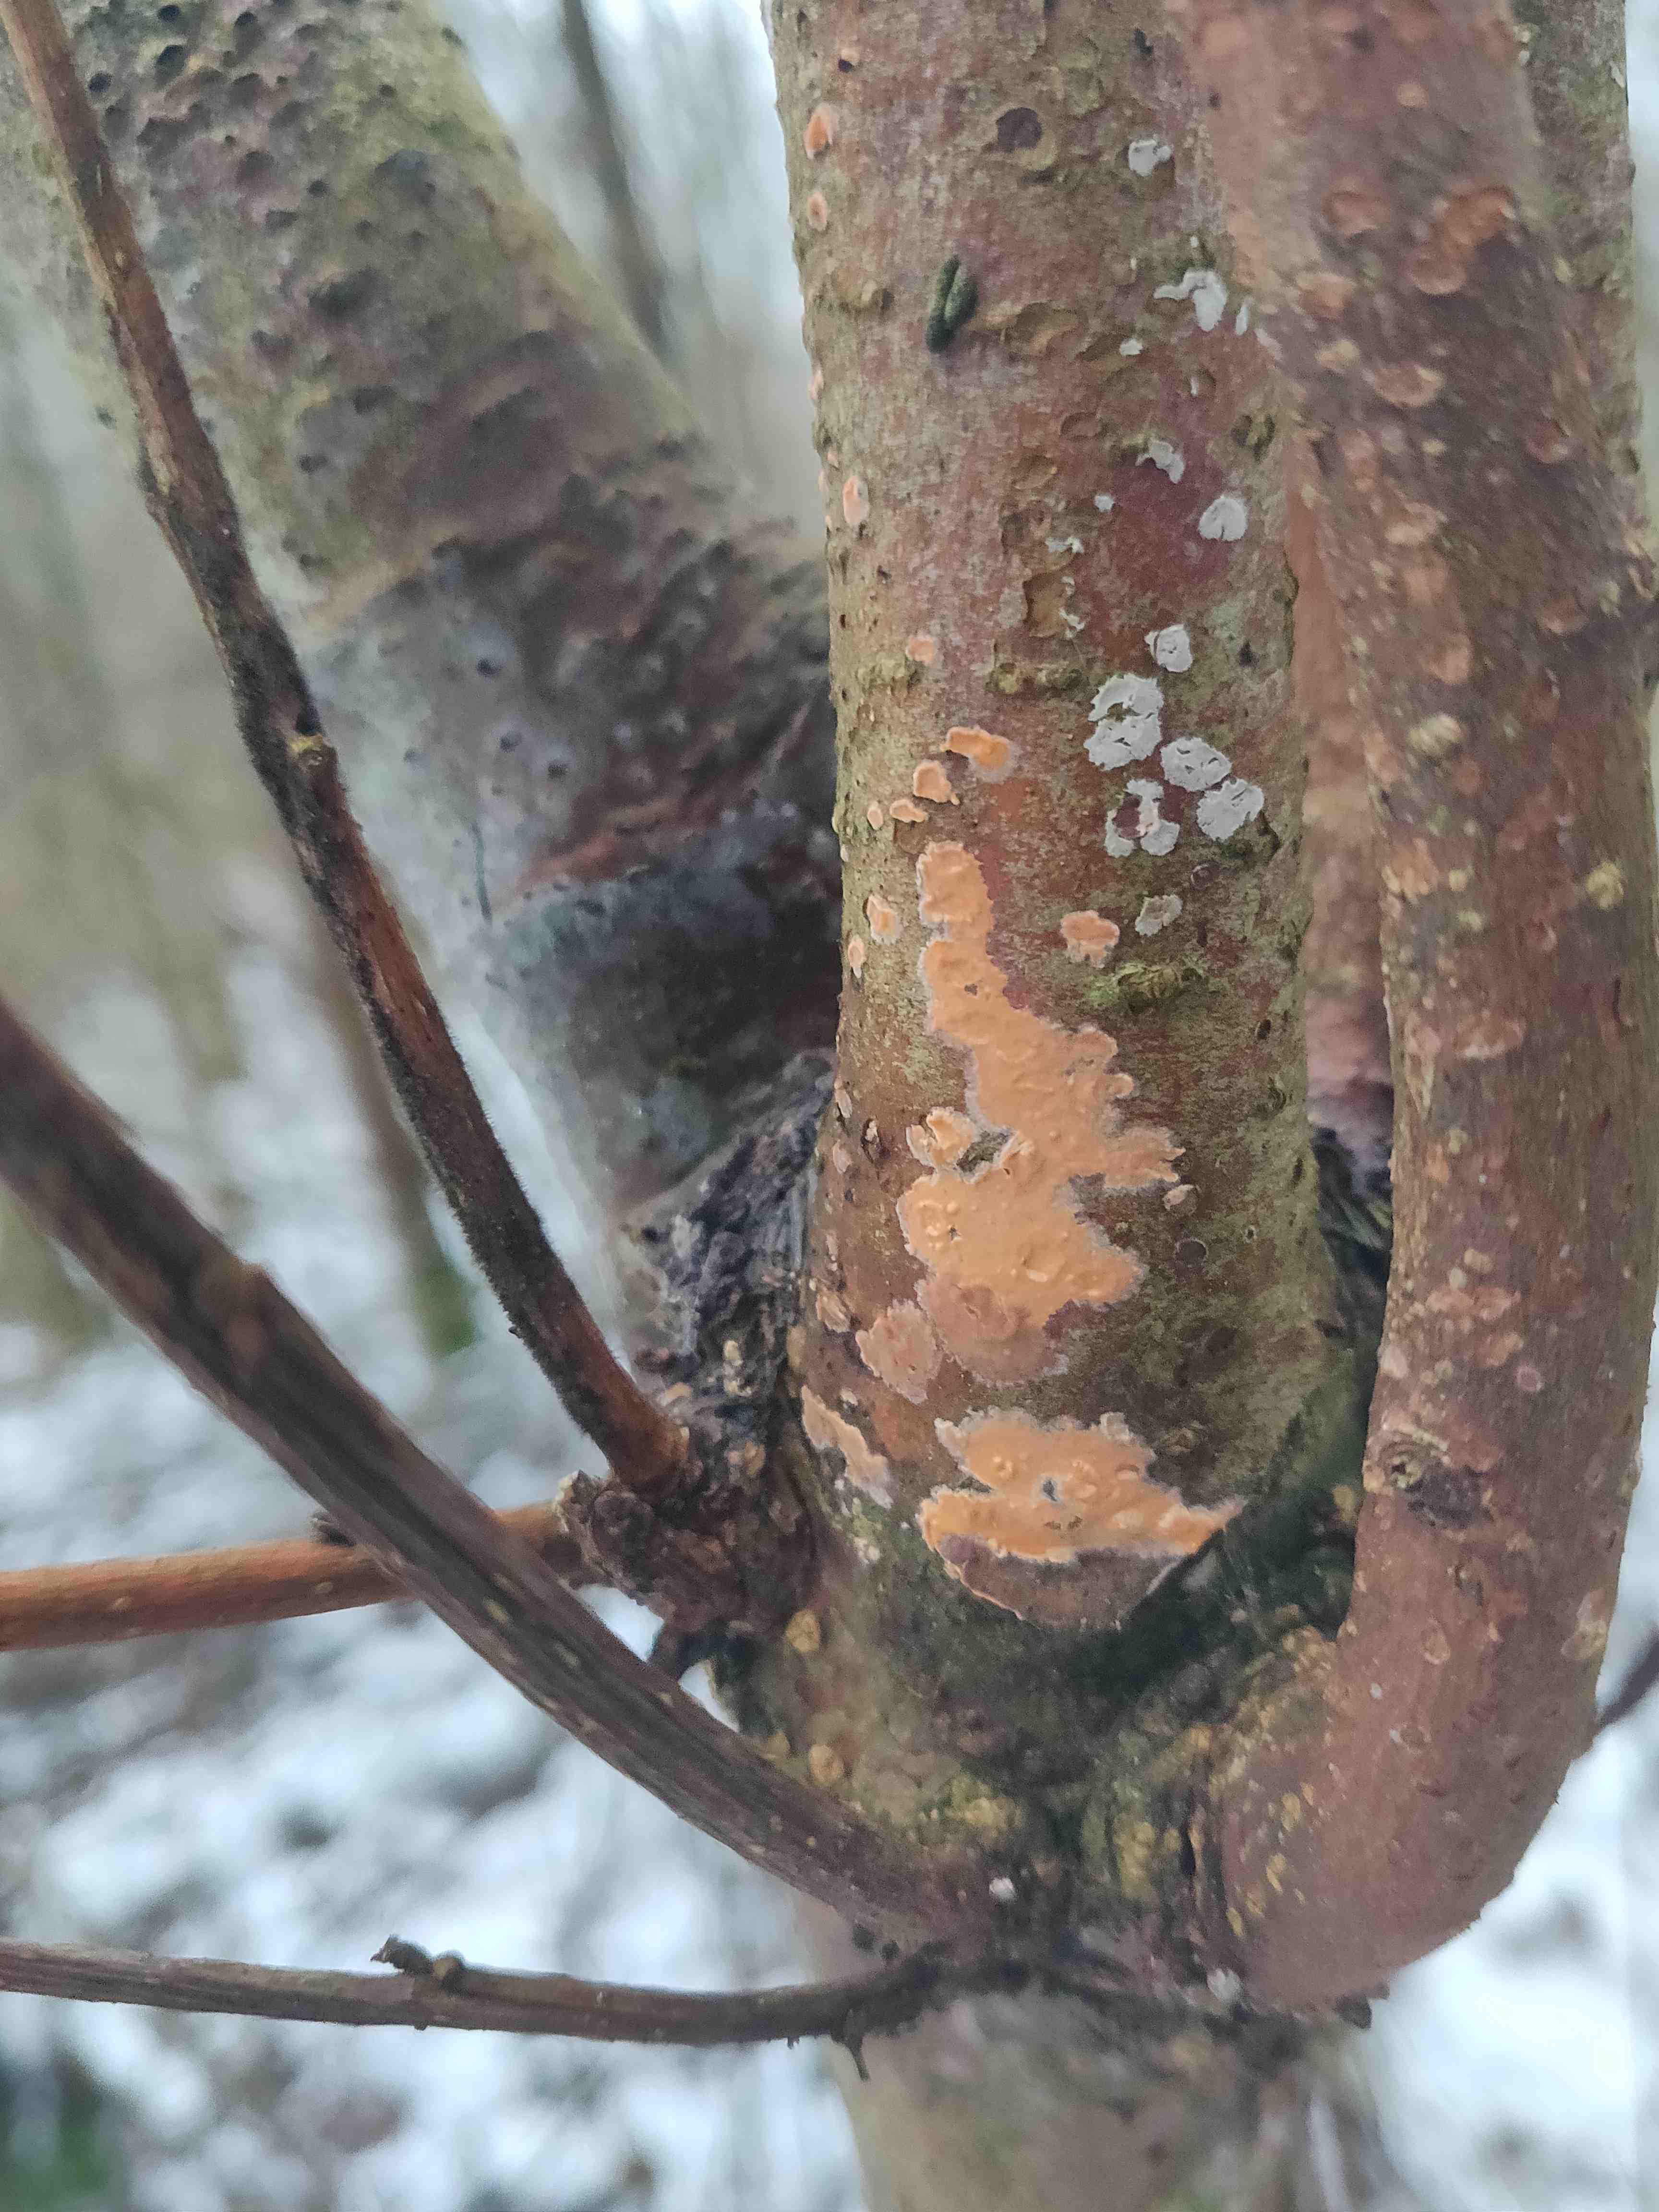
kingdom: Fungi
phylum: Basidiomycota
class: Agaricomycetes
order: Russulales
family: Peniophoraceae
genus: Peniophora
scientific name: Peniophora incarnata
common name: laksefarvet voksskind
